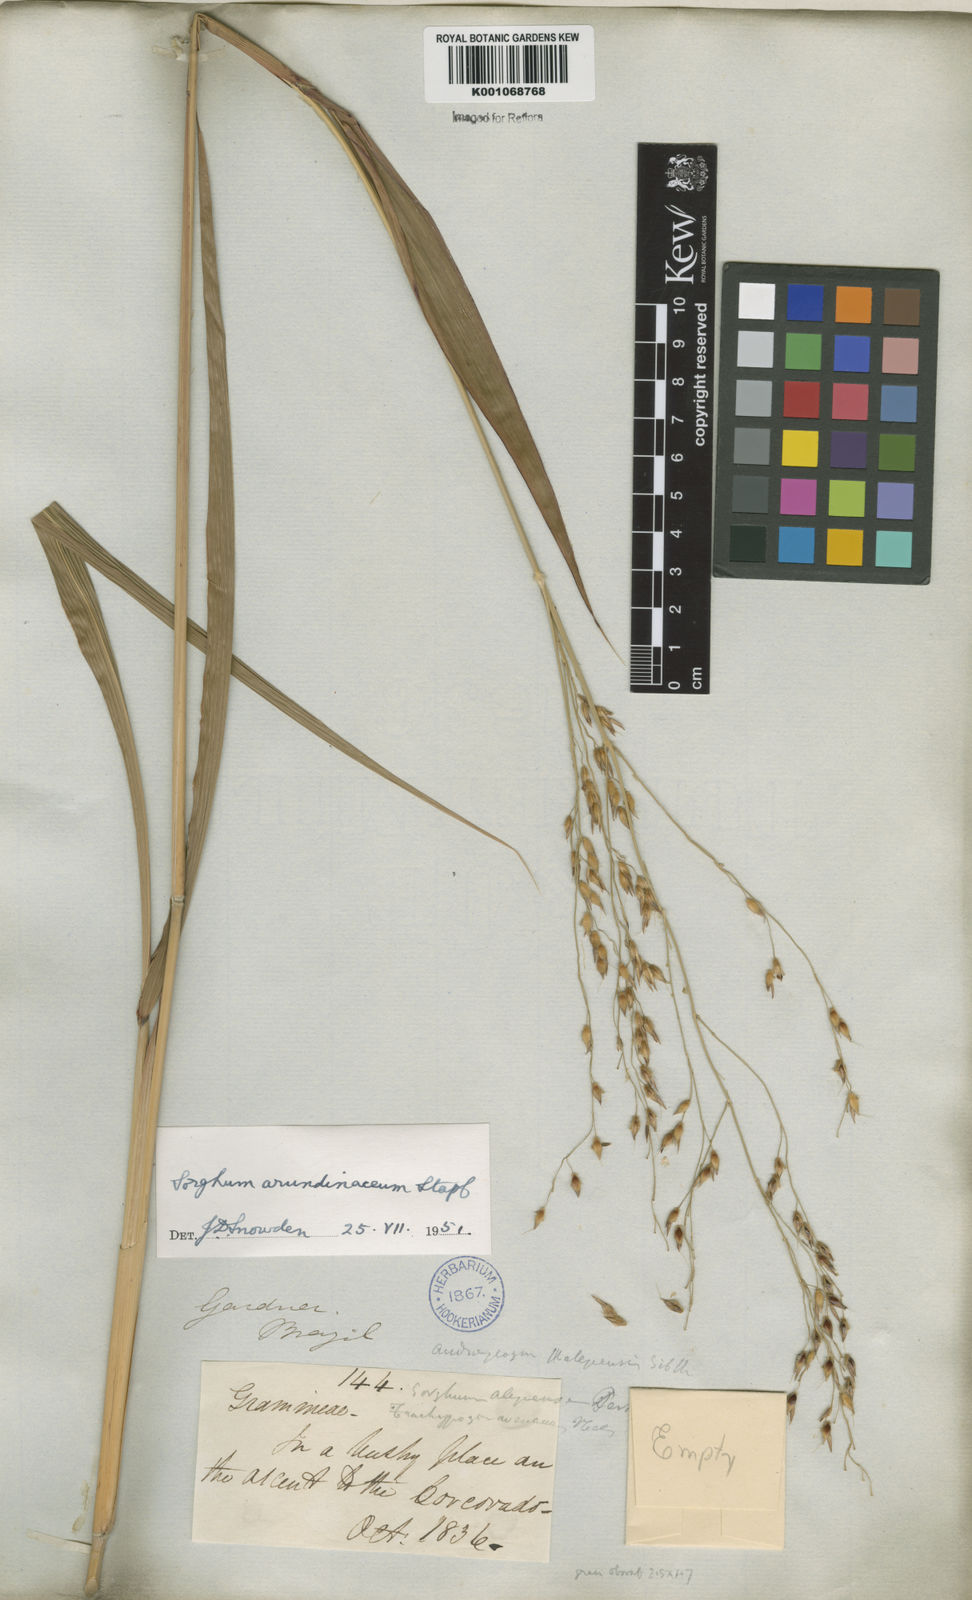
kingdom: Plantae
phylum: Tracheophyta
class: Liliopsida
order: Poales
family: Poaceae
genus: Sorghum
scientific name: Sorghum arundinaceum
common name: Sorghum
